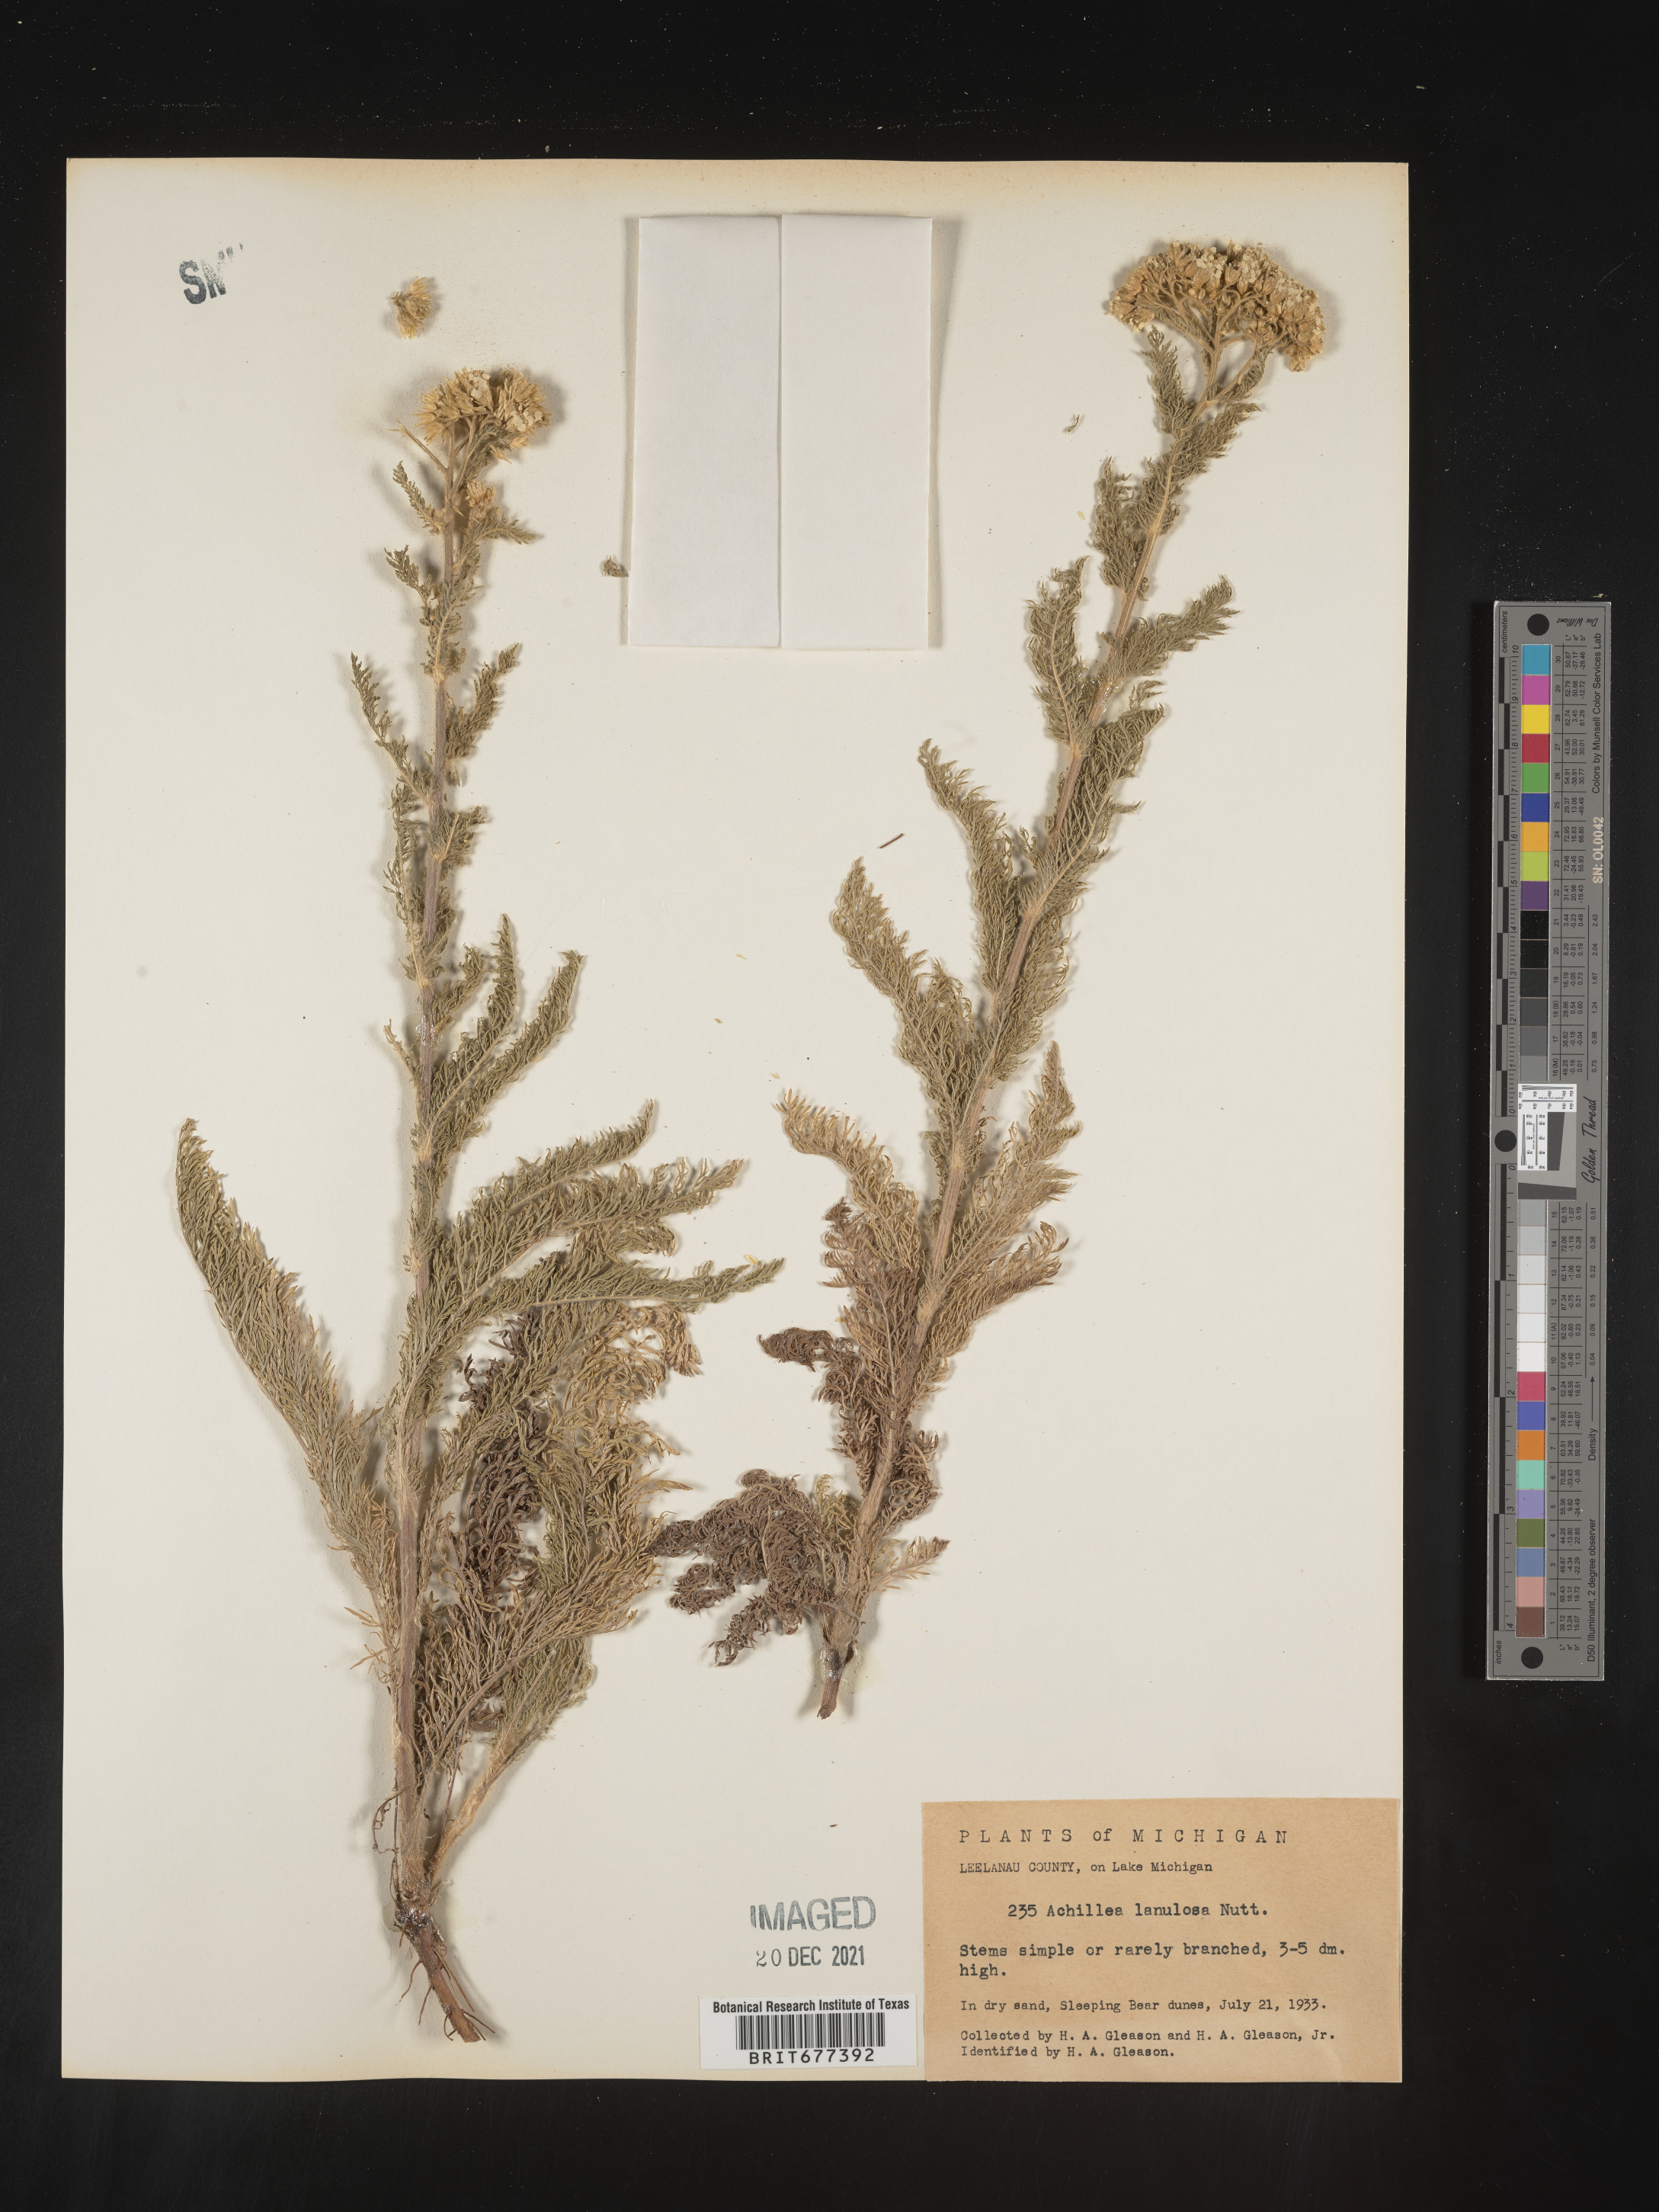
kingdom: Plantae
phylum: Tracheophyta
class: Magnoliopsida
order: Asterales
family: Asteraceae
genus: Achillea
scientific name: Achillea millefolium
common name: Yarrow
